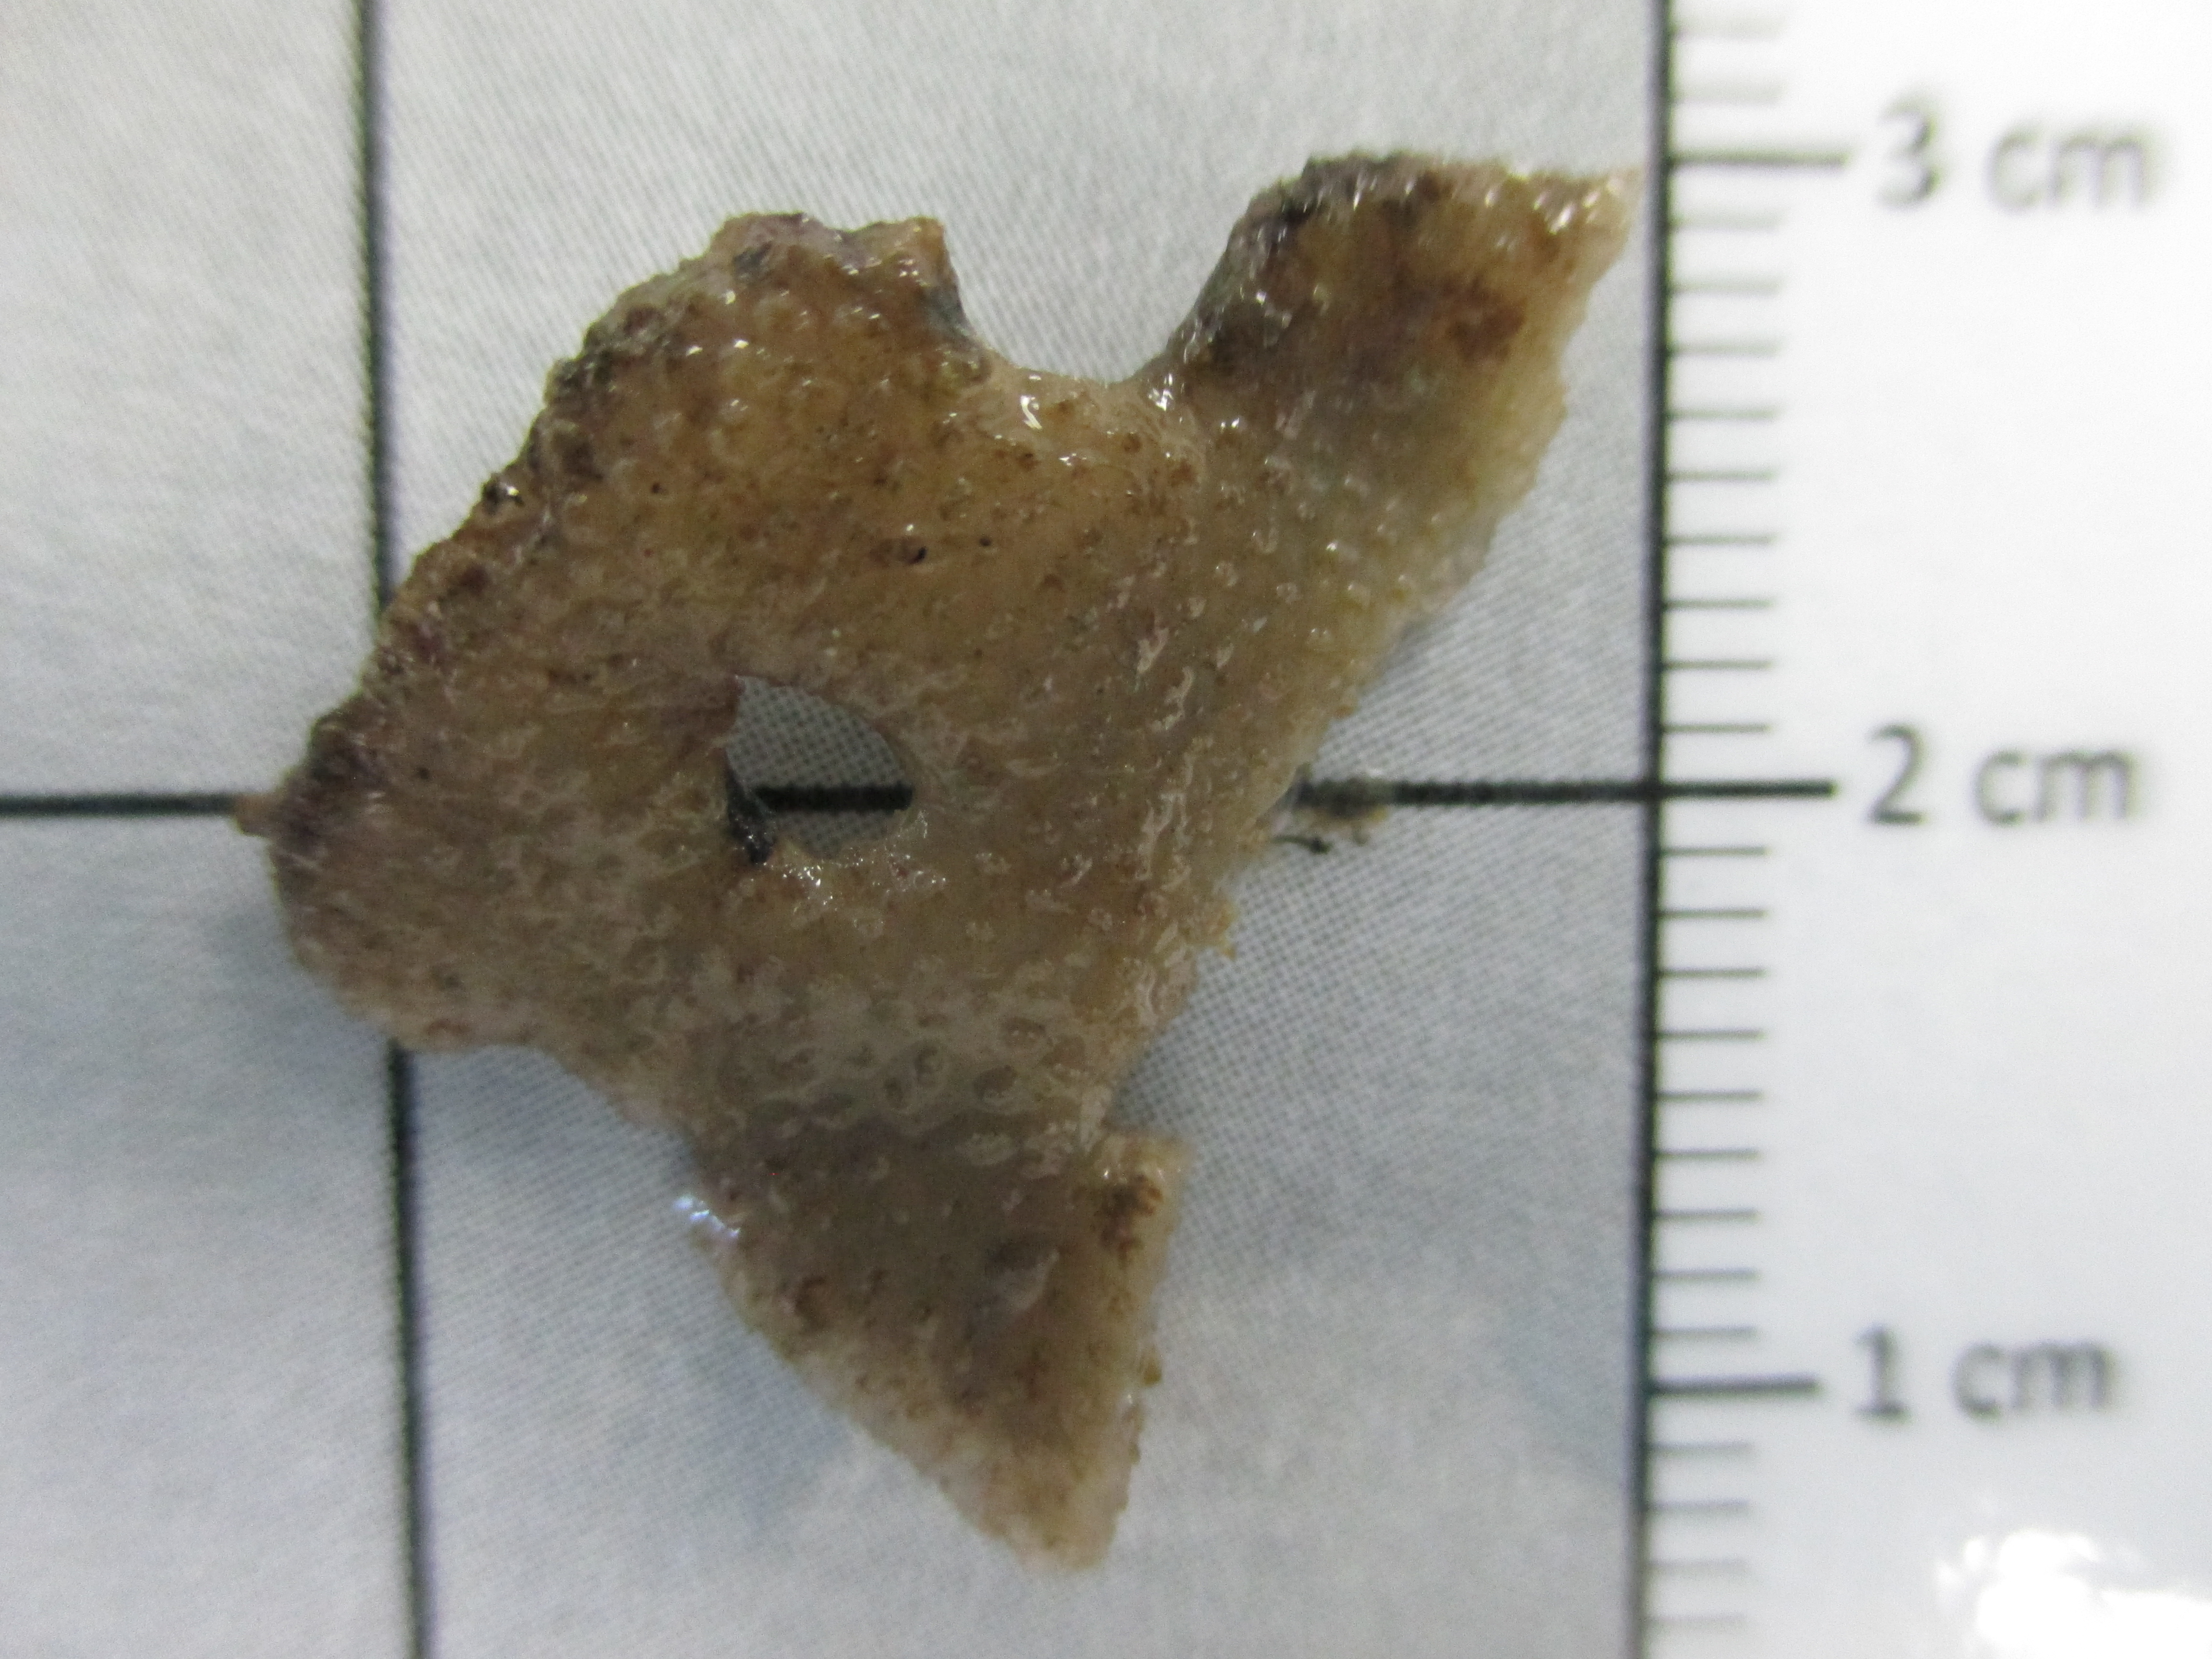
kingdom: Animalia
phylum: Bryozoa
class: Gymnolaemata
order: Cheilostomatida
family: Aspidostomatidae
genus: Aspidostoma
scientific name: Aspidostoma
